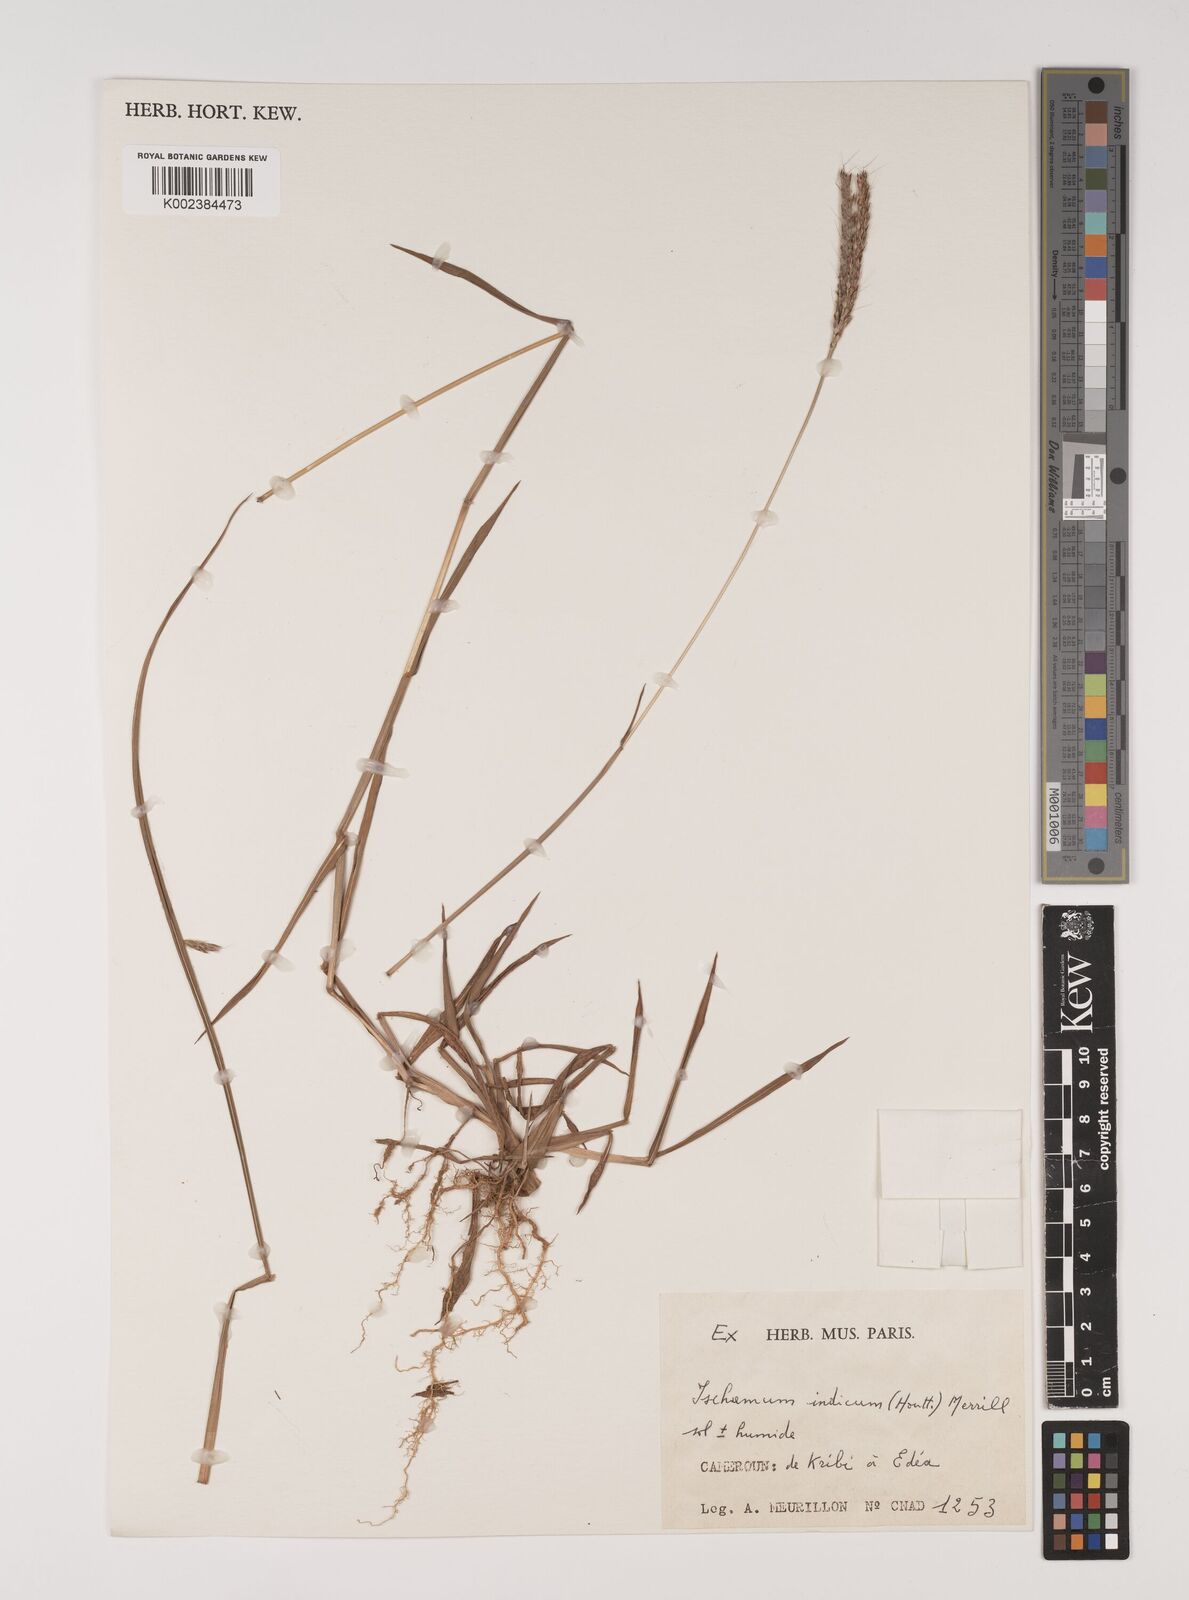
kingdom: Plantae
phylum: Tracheophyta
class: Liliopsida
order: Poales
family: Poaceae
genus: Polytrias
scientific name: Polytrias indica
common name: Indian murainagrass
